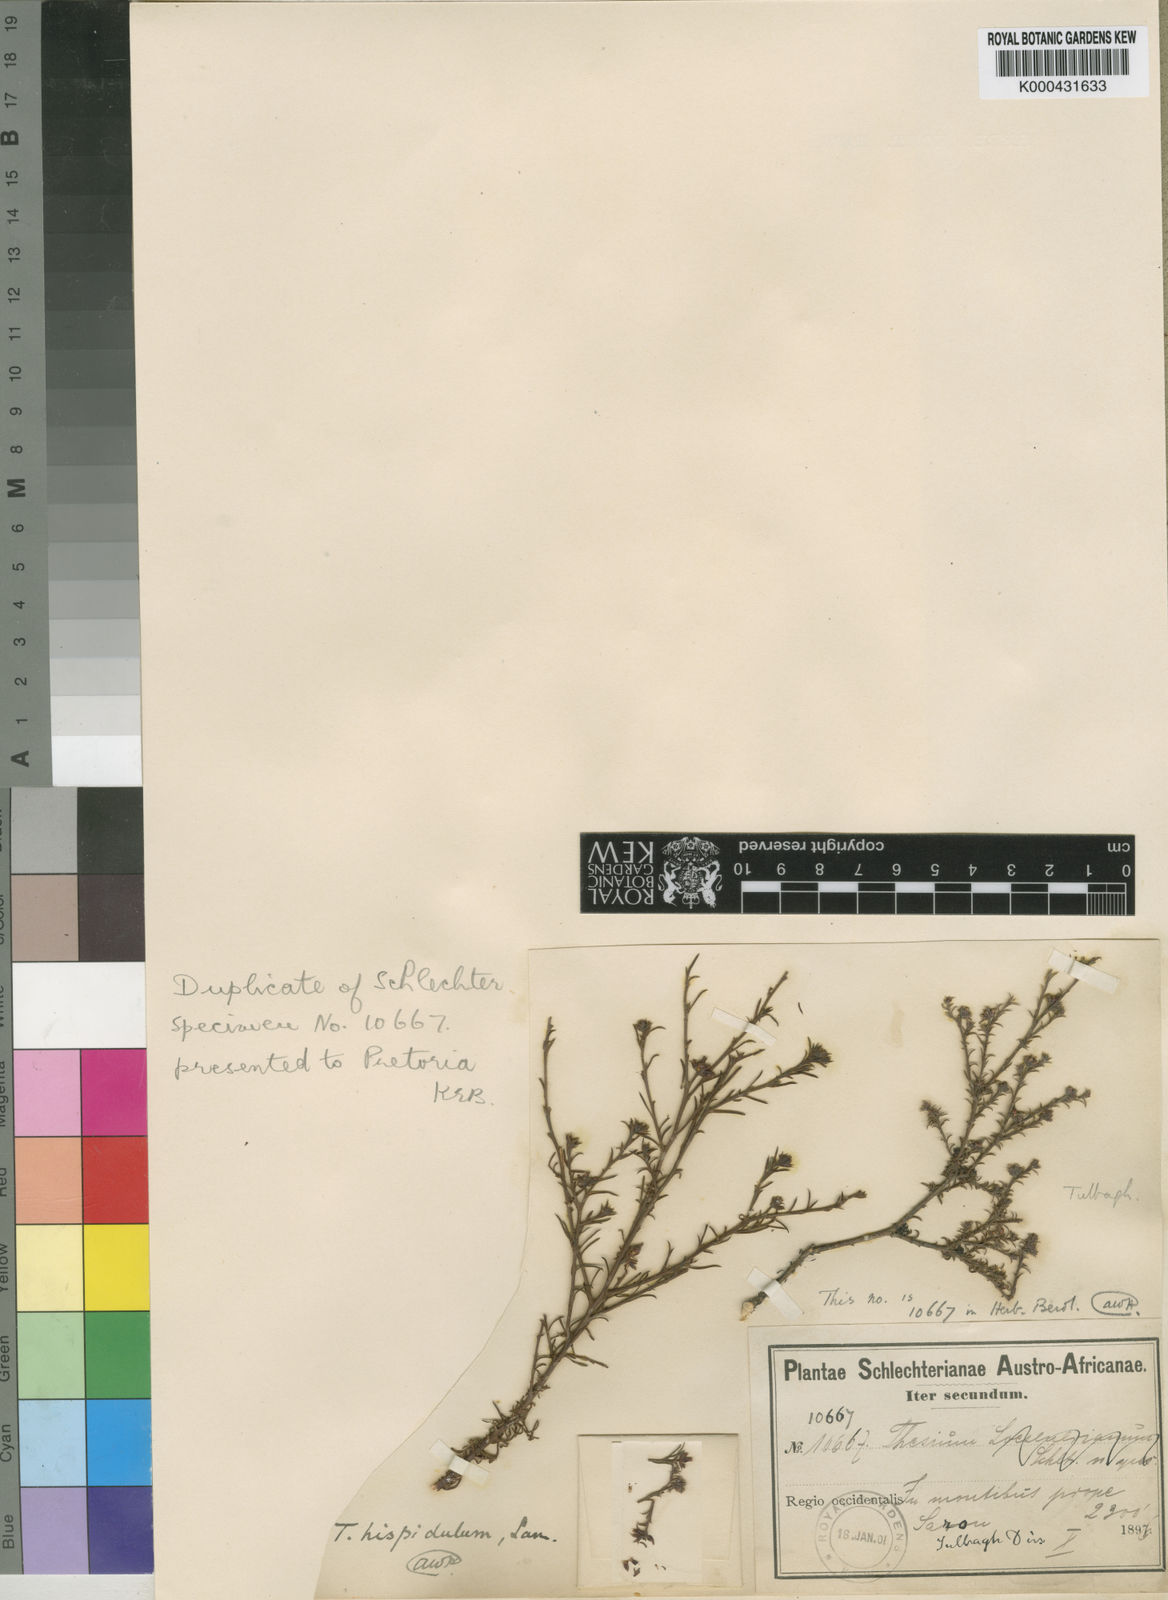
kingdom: Plantae
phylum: Tracheophyta
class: Magnoliopsida
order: Santalales
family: Thesiaceae
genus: Thesium
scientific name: Thesium
